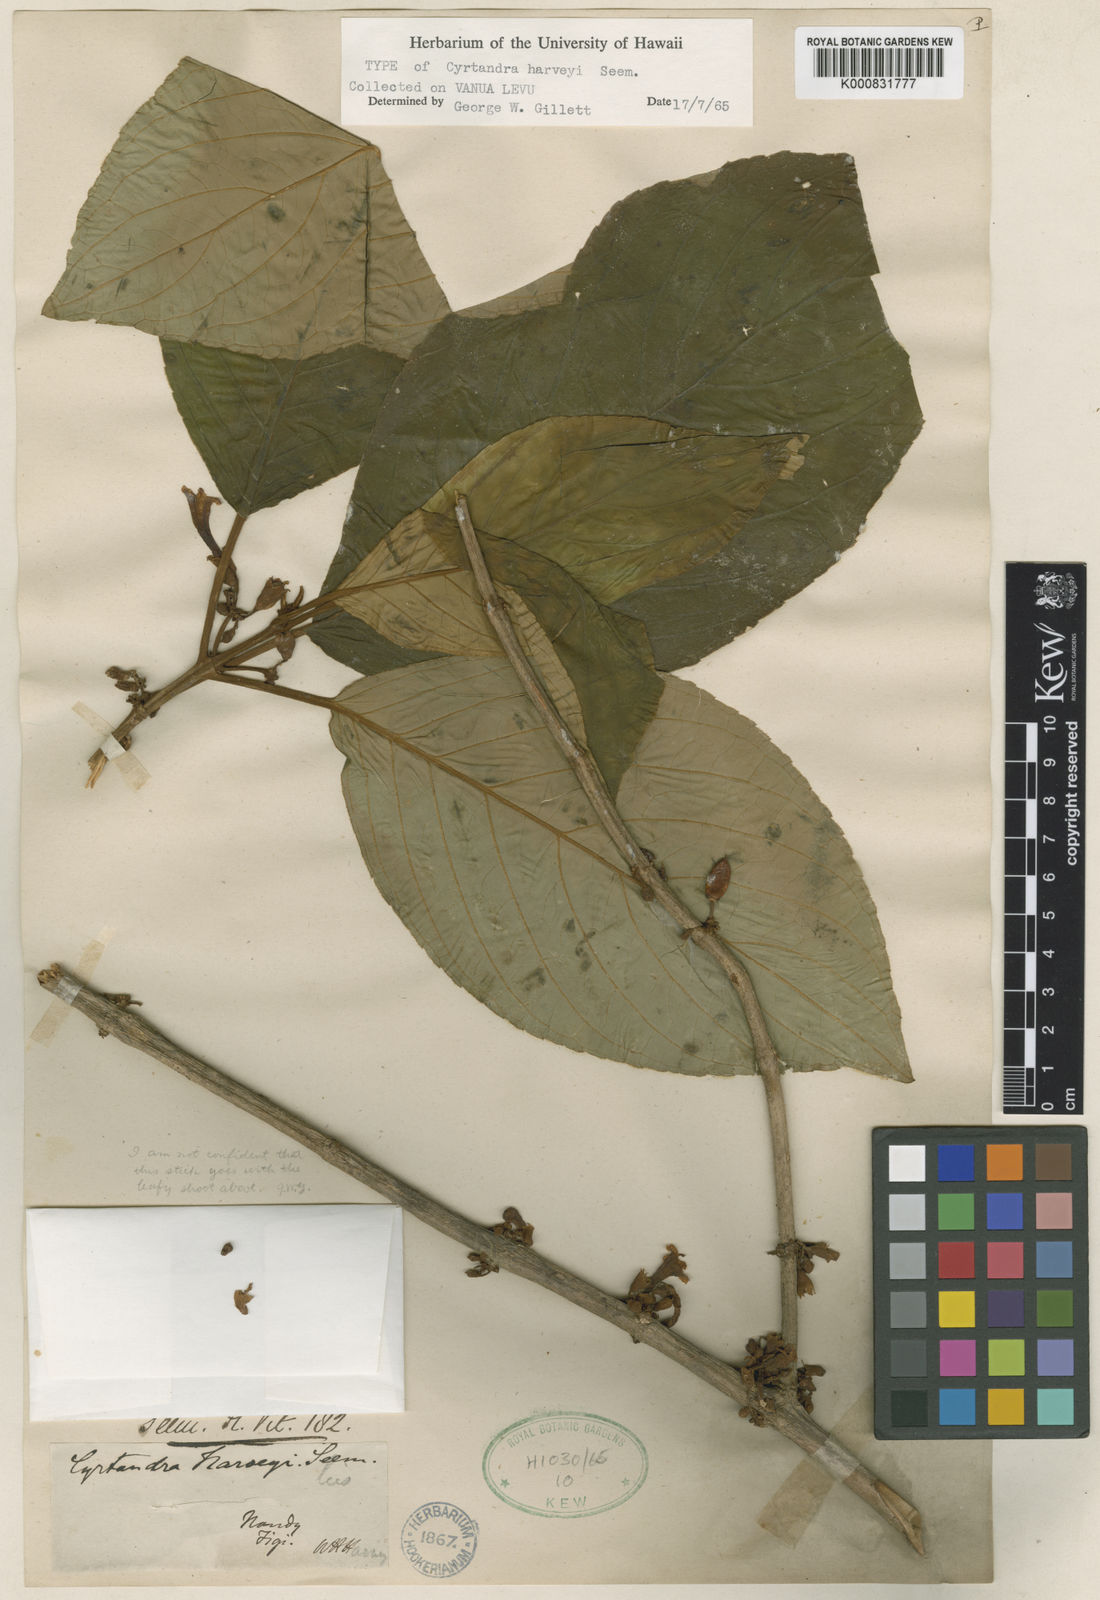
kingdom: Plantae
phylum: Tracheophyta
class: Magnoliopsida
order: Lamiales
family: Gesneriaceae
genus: Cyrtandra
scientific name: Cyrtandra harveyi
